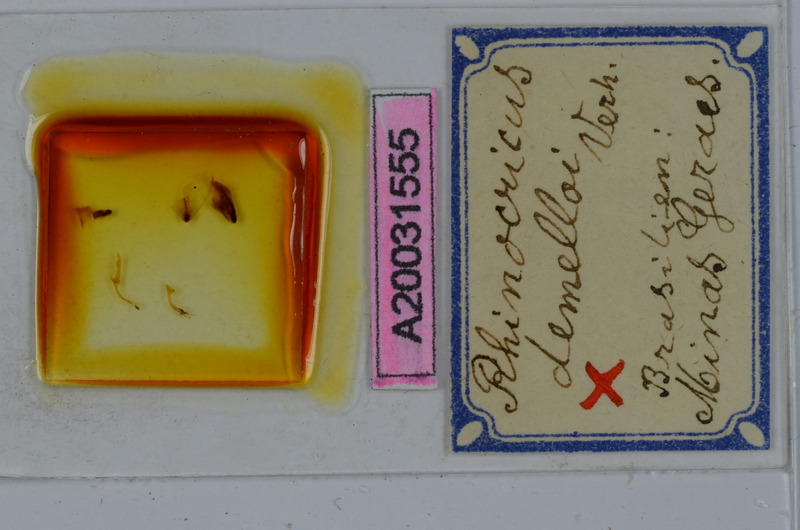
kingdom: Animalia
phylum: Arthropoda
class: Diplopoda
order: Spirobolida
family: Rhinocricidae
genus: Rhinocricus
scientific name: Rhinocricus demelloi
